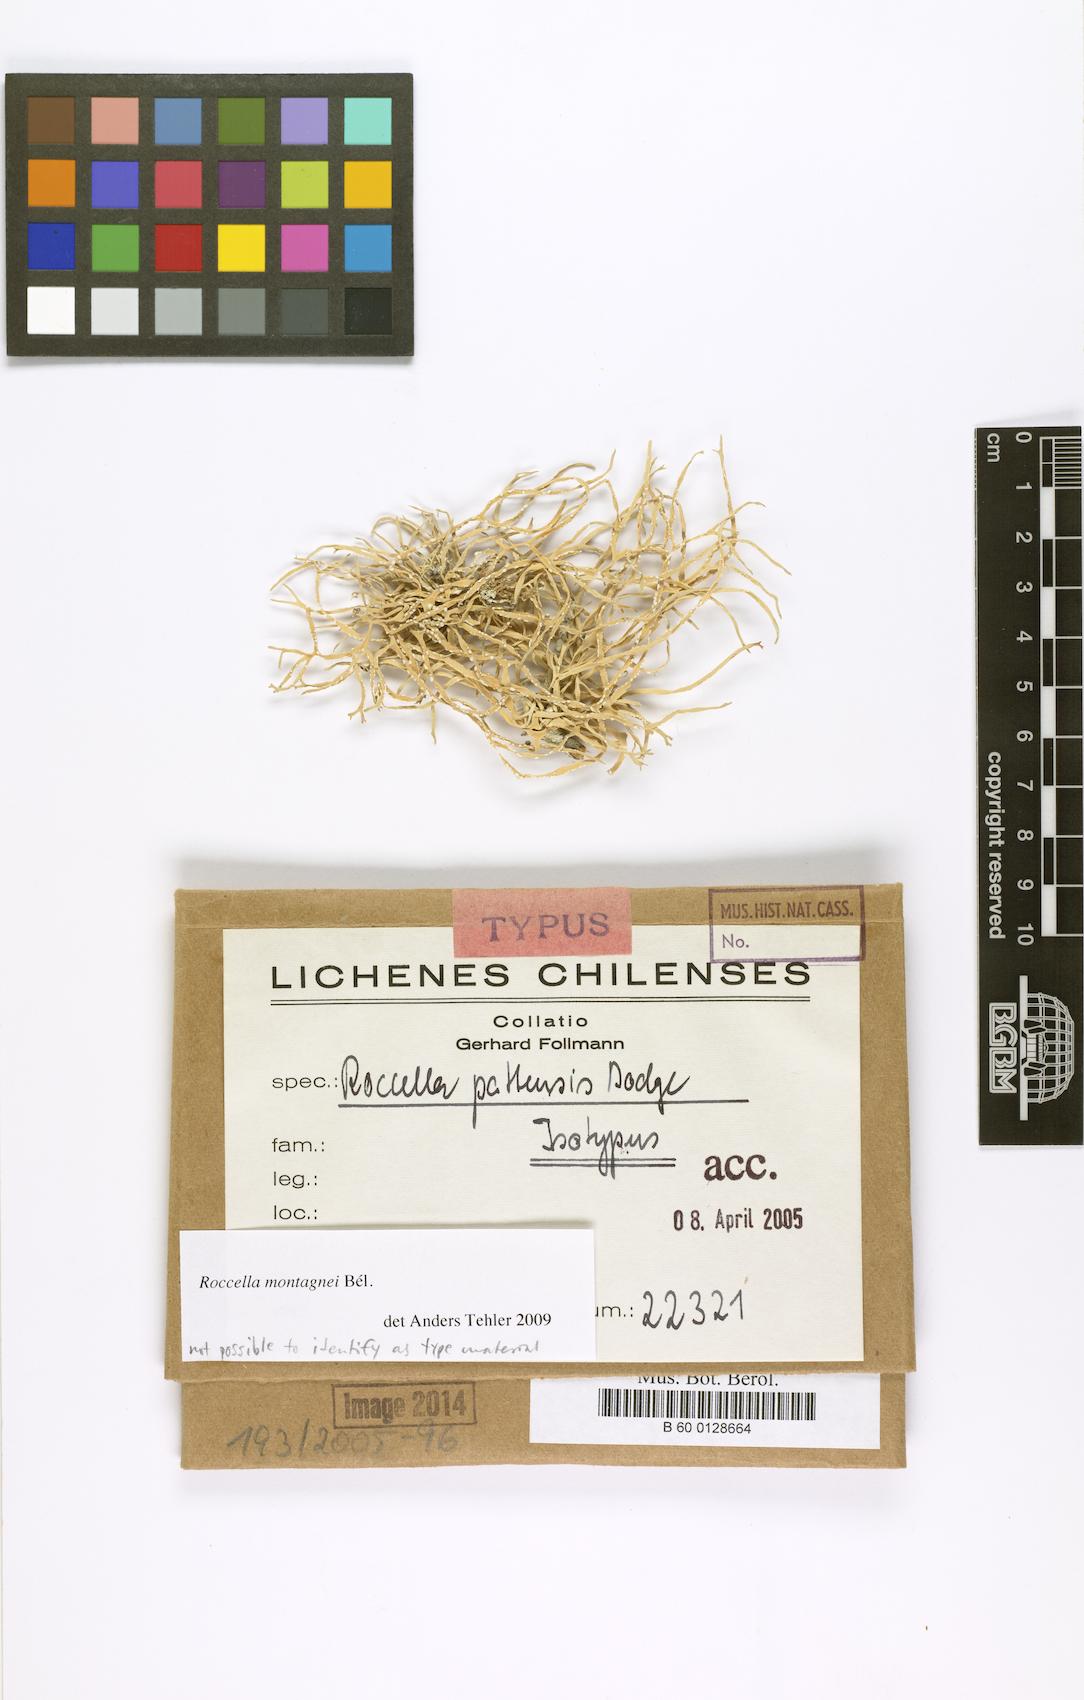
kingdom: Fungi
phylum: Ascomycota
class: Arthoniomycetes
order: Arthoniales
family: Roccellaceae
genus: Roccella
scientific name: Roccella linearis
